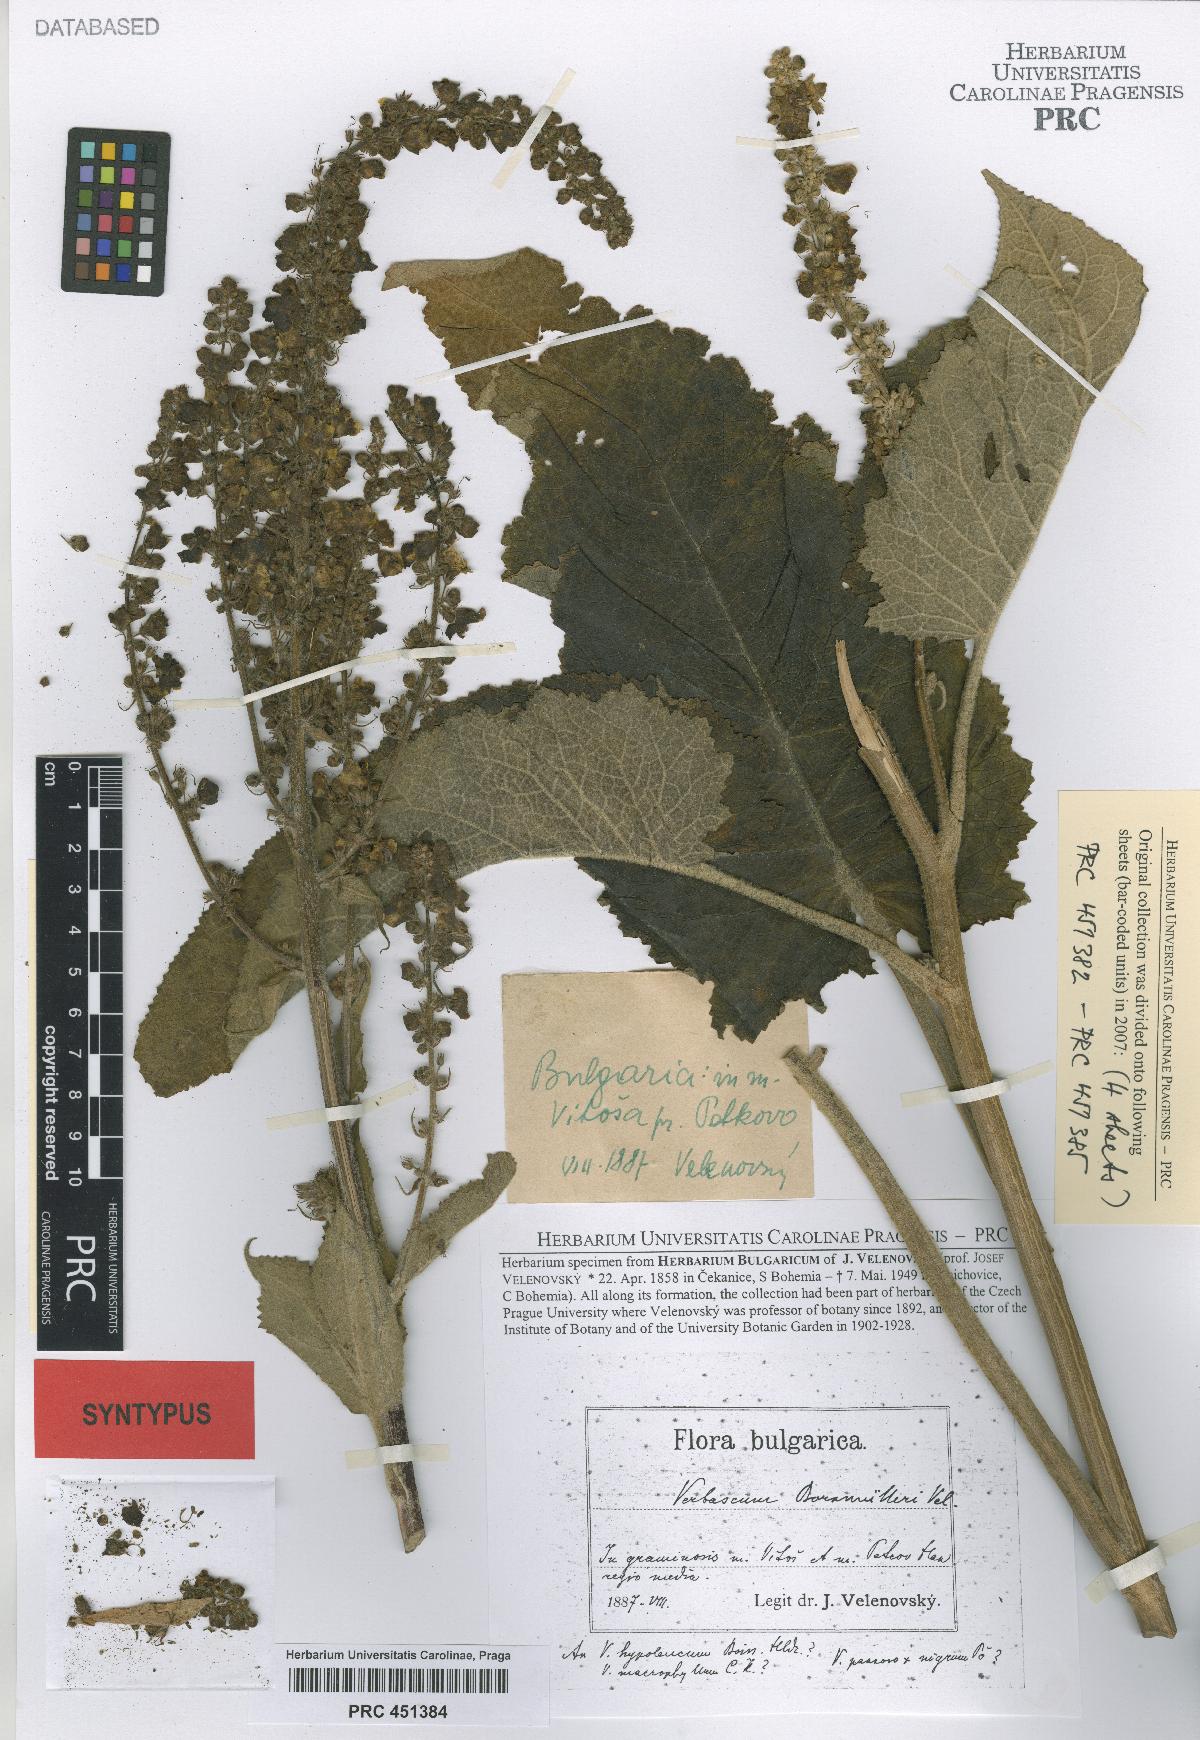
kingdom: Plantae
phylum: Tracheophyta
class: Magnoliopsida
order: Lamiales
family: Scrophulariaceae
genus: Verbascum
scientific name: Verbascum nigrum
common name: Dark mullein
